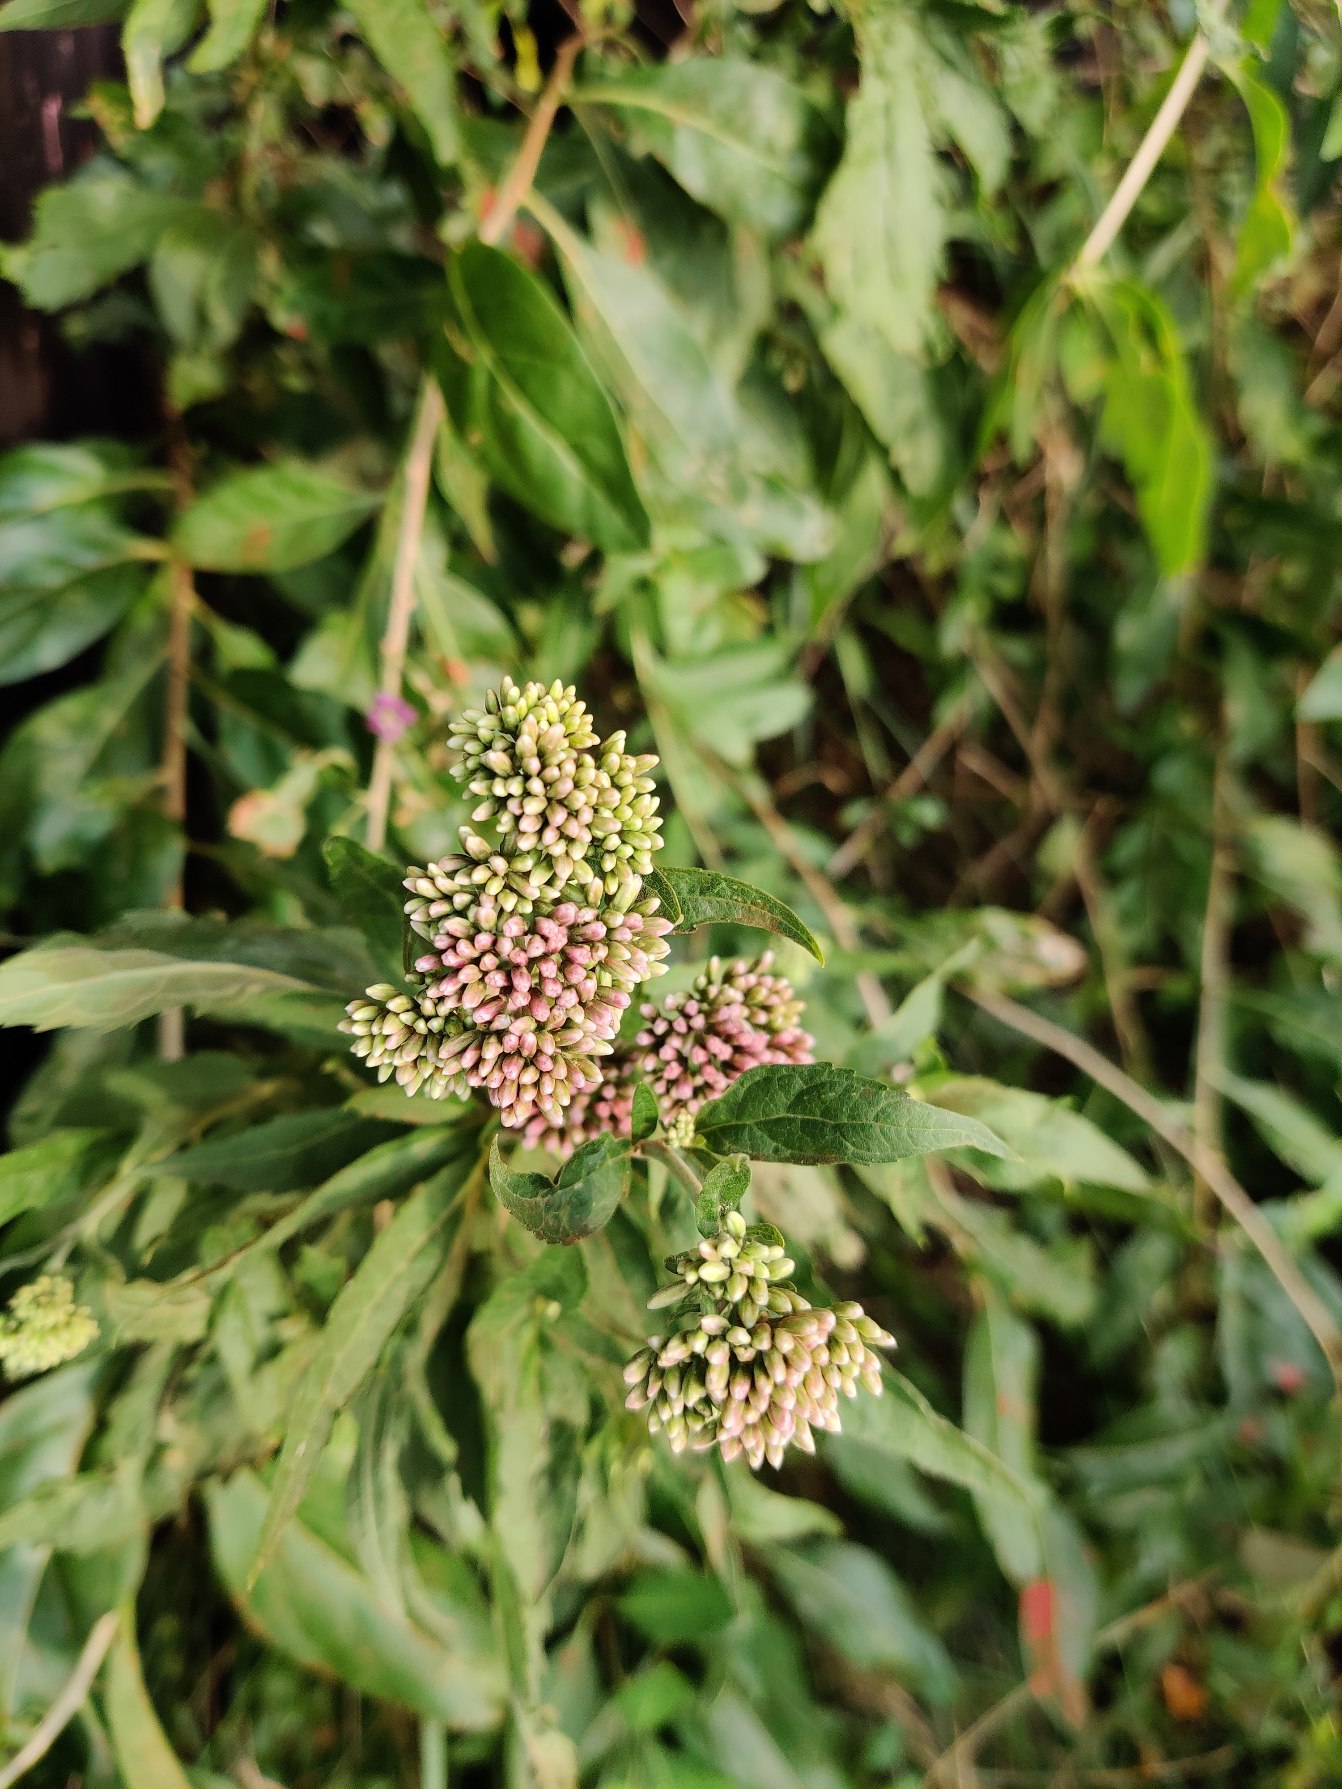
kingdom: Plantae
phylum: Tracheophyta
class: Magnoliopsida
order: Asterales
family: Asteraceae
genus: Eupatorium
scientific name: Eupatorium cannabinum
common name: Hjortetrøst
